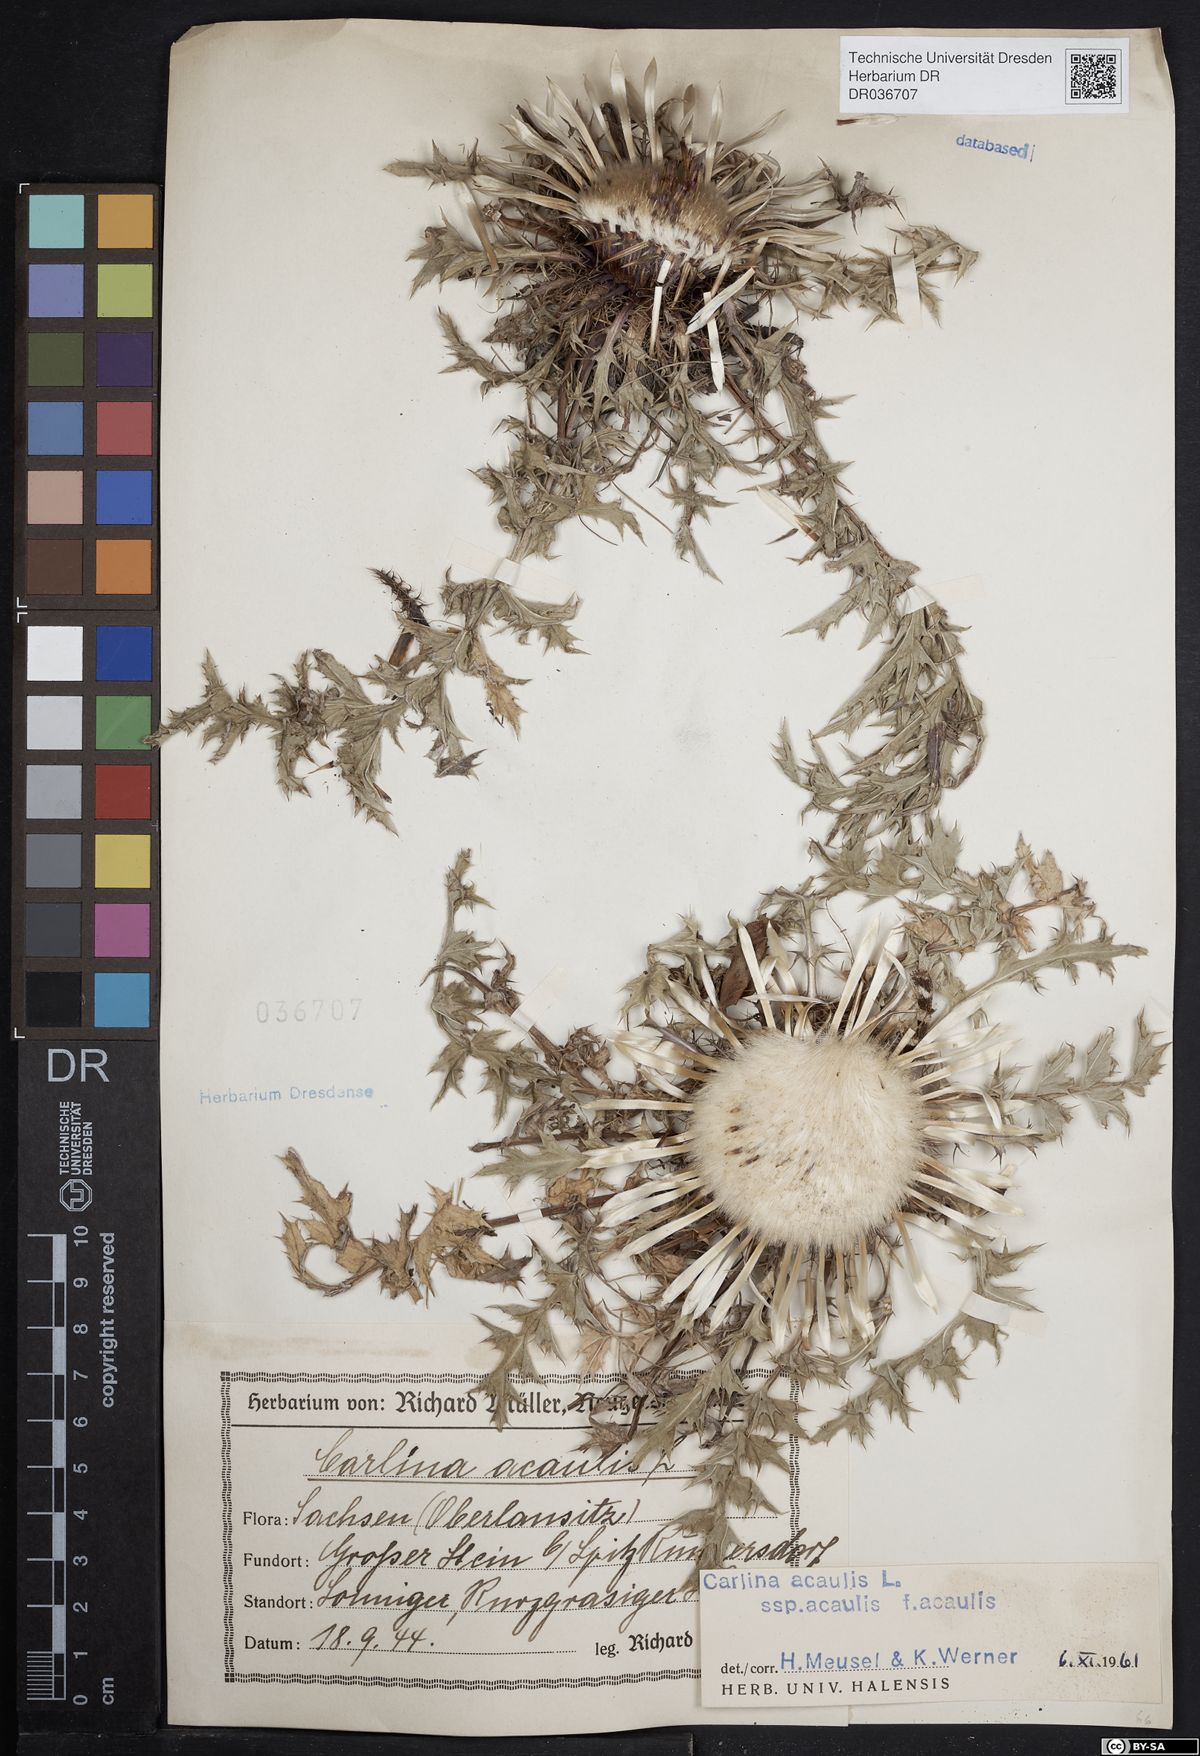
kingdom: Plantae
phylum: Tracheophyta
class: Magnoliopsida
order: Asterales
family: Asteraceae
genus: Carlina
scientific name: Carlina acaulis
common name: Stemless carline thistle
